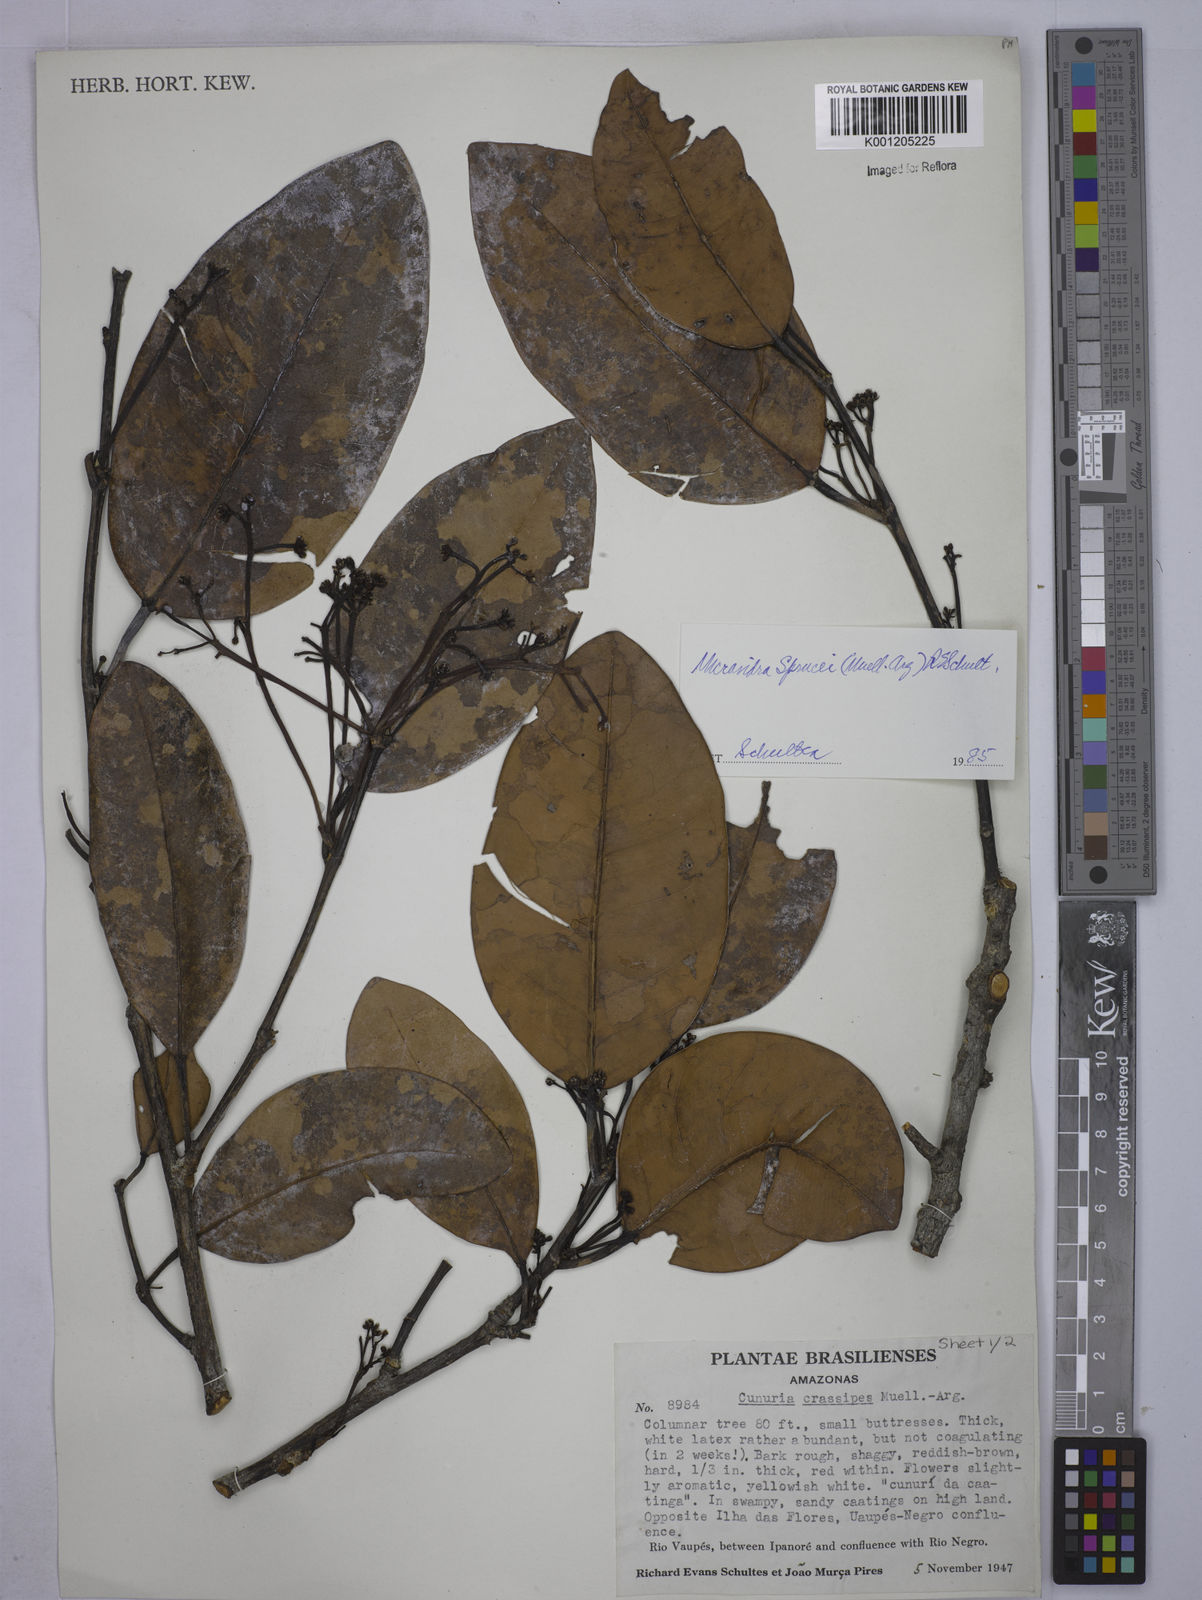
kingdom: Plantae
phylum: Tracheophyta
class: Magnoliopsida
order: Malpighiales
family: Euphorbiaceae
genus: Micrandra
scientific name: Micrandra
